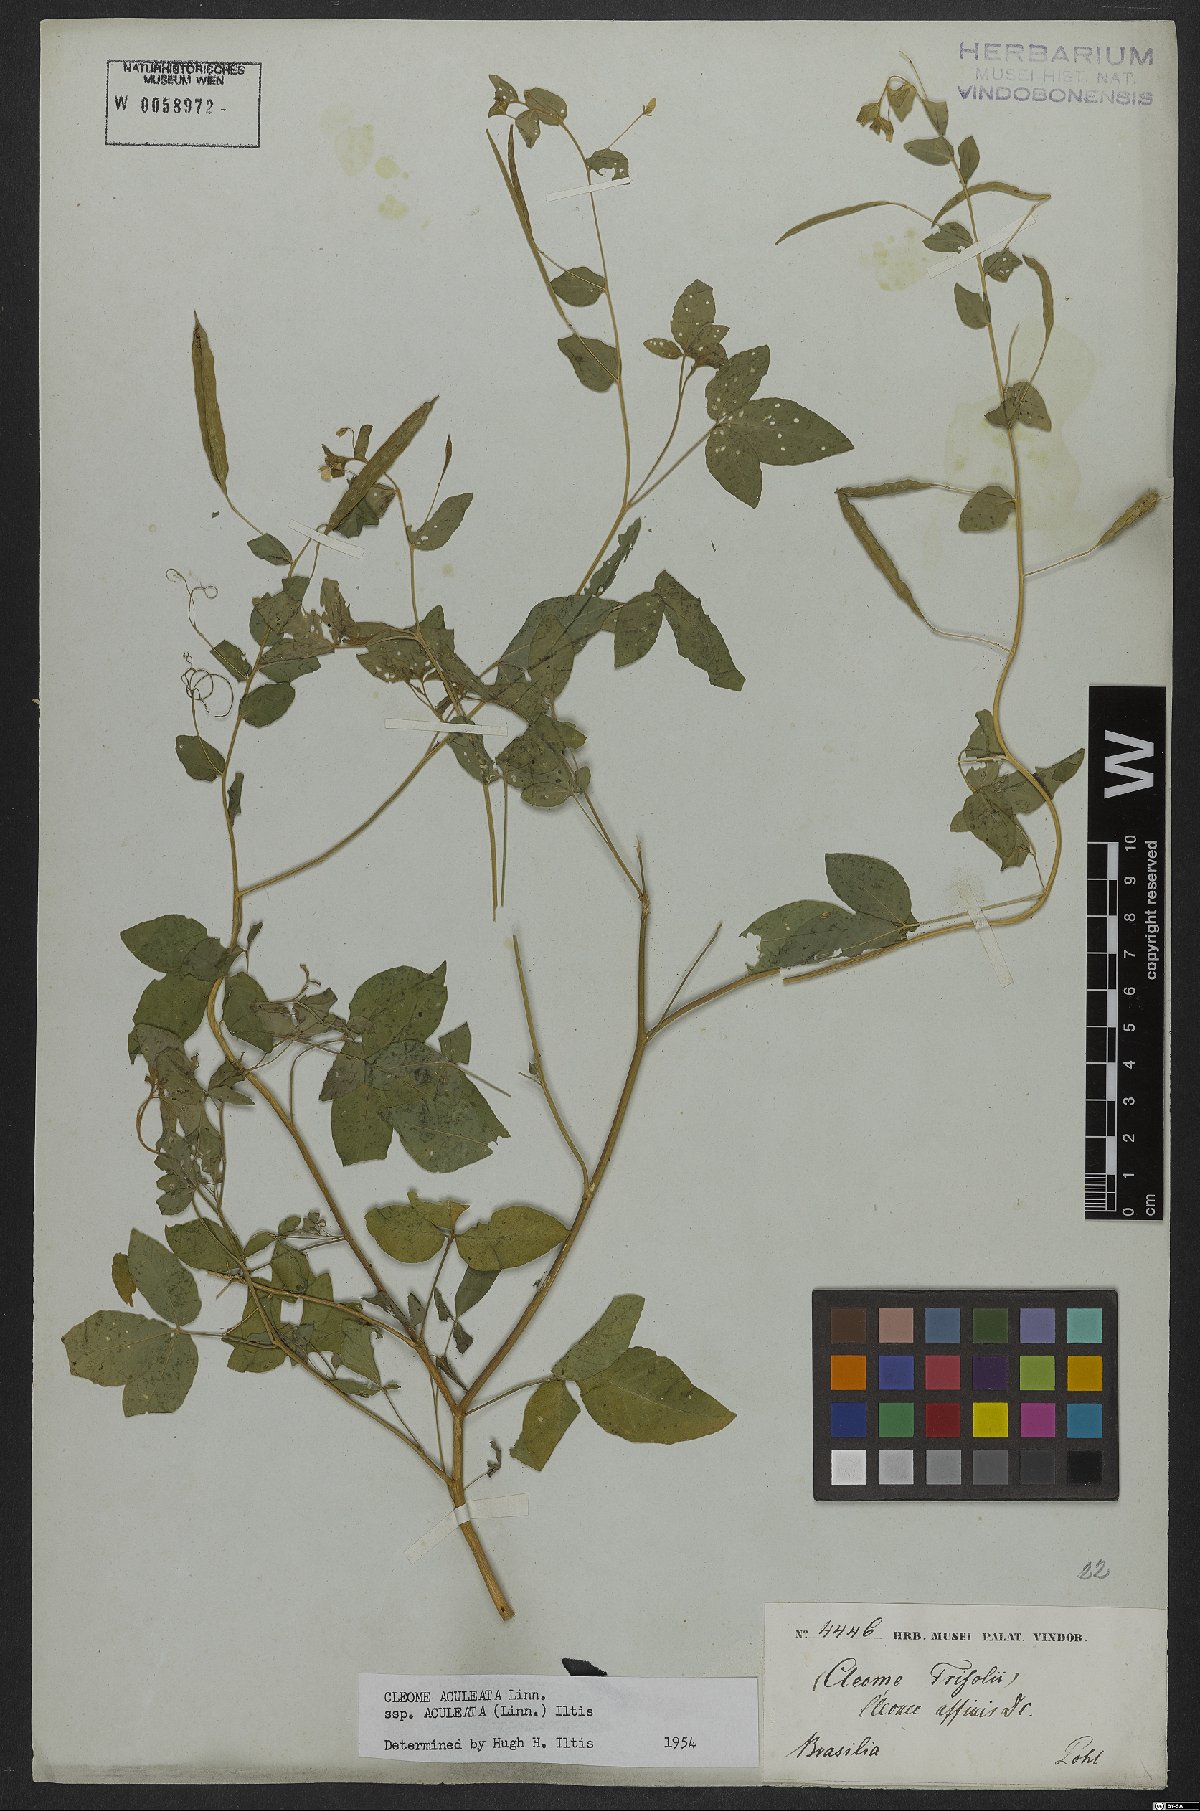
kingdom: Plantae
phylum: Tracheophyta
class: Magnoliopsida
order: Brassicales
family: Cleomaceae
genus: Tarenaya
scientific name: Tarenaya aculeata
